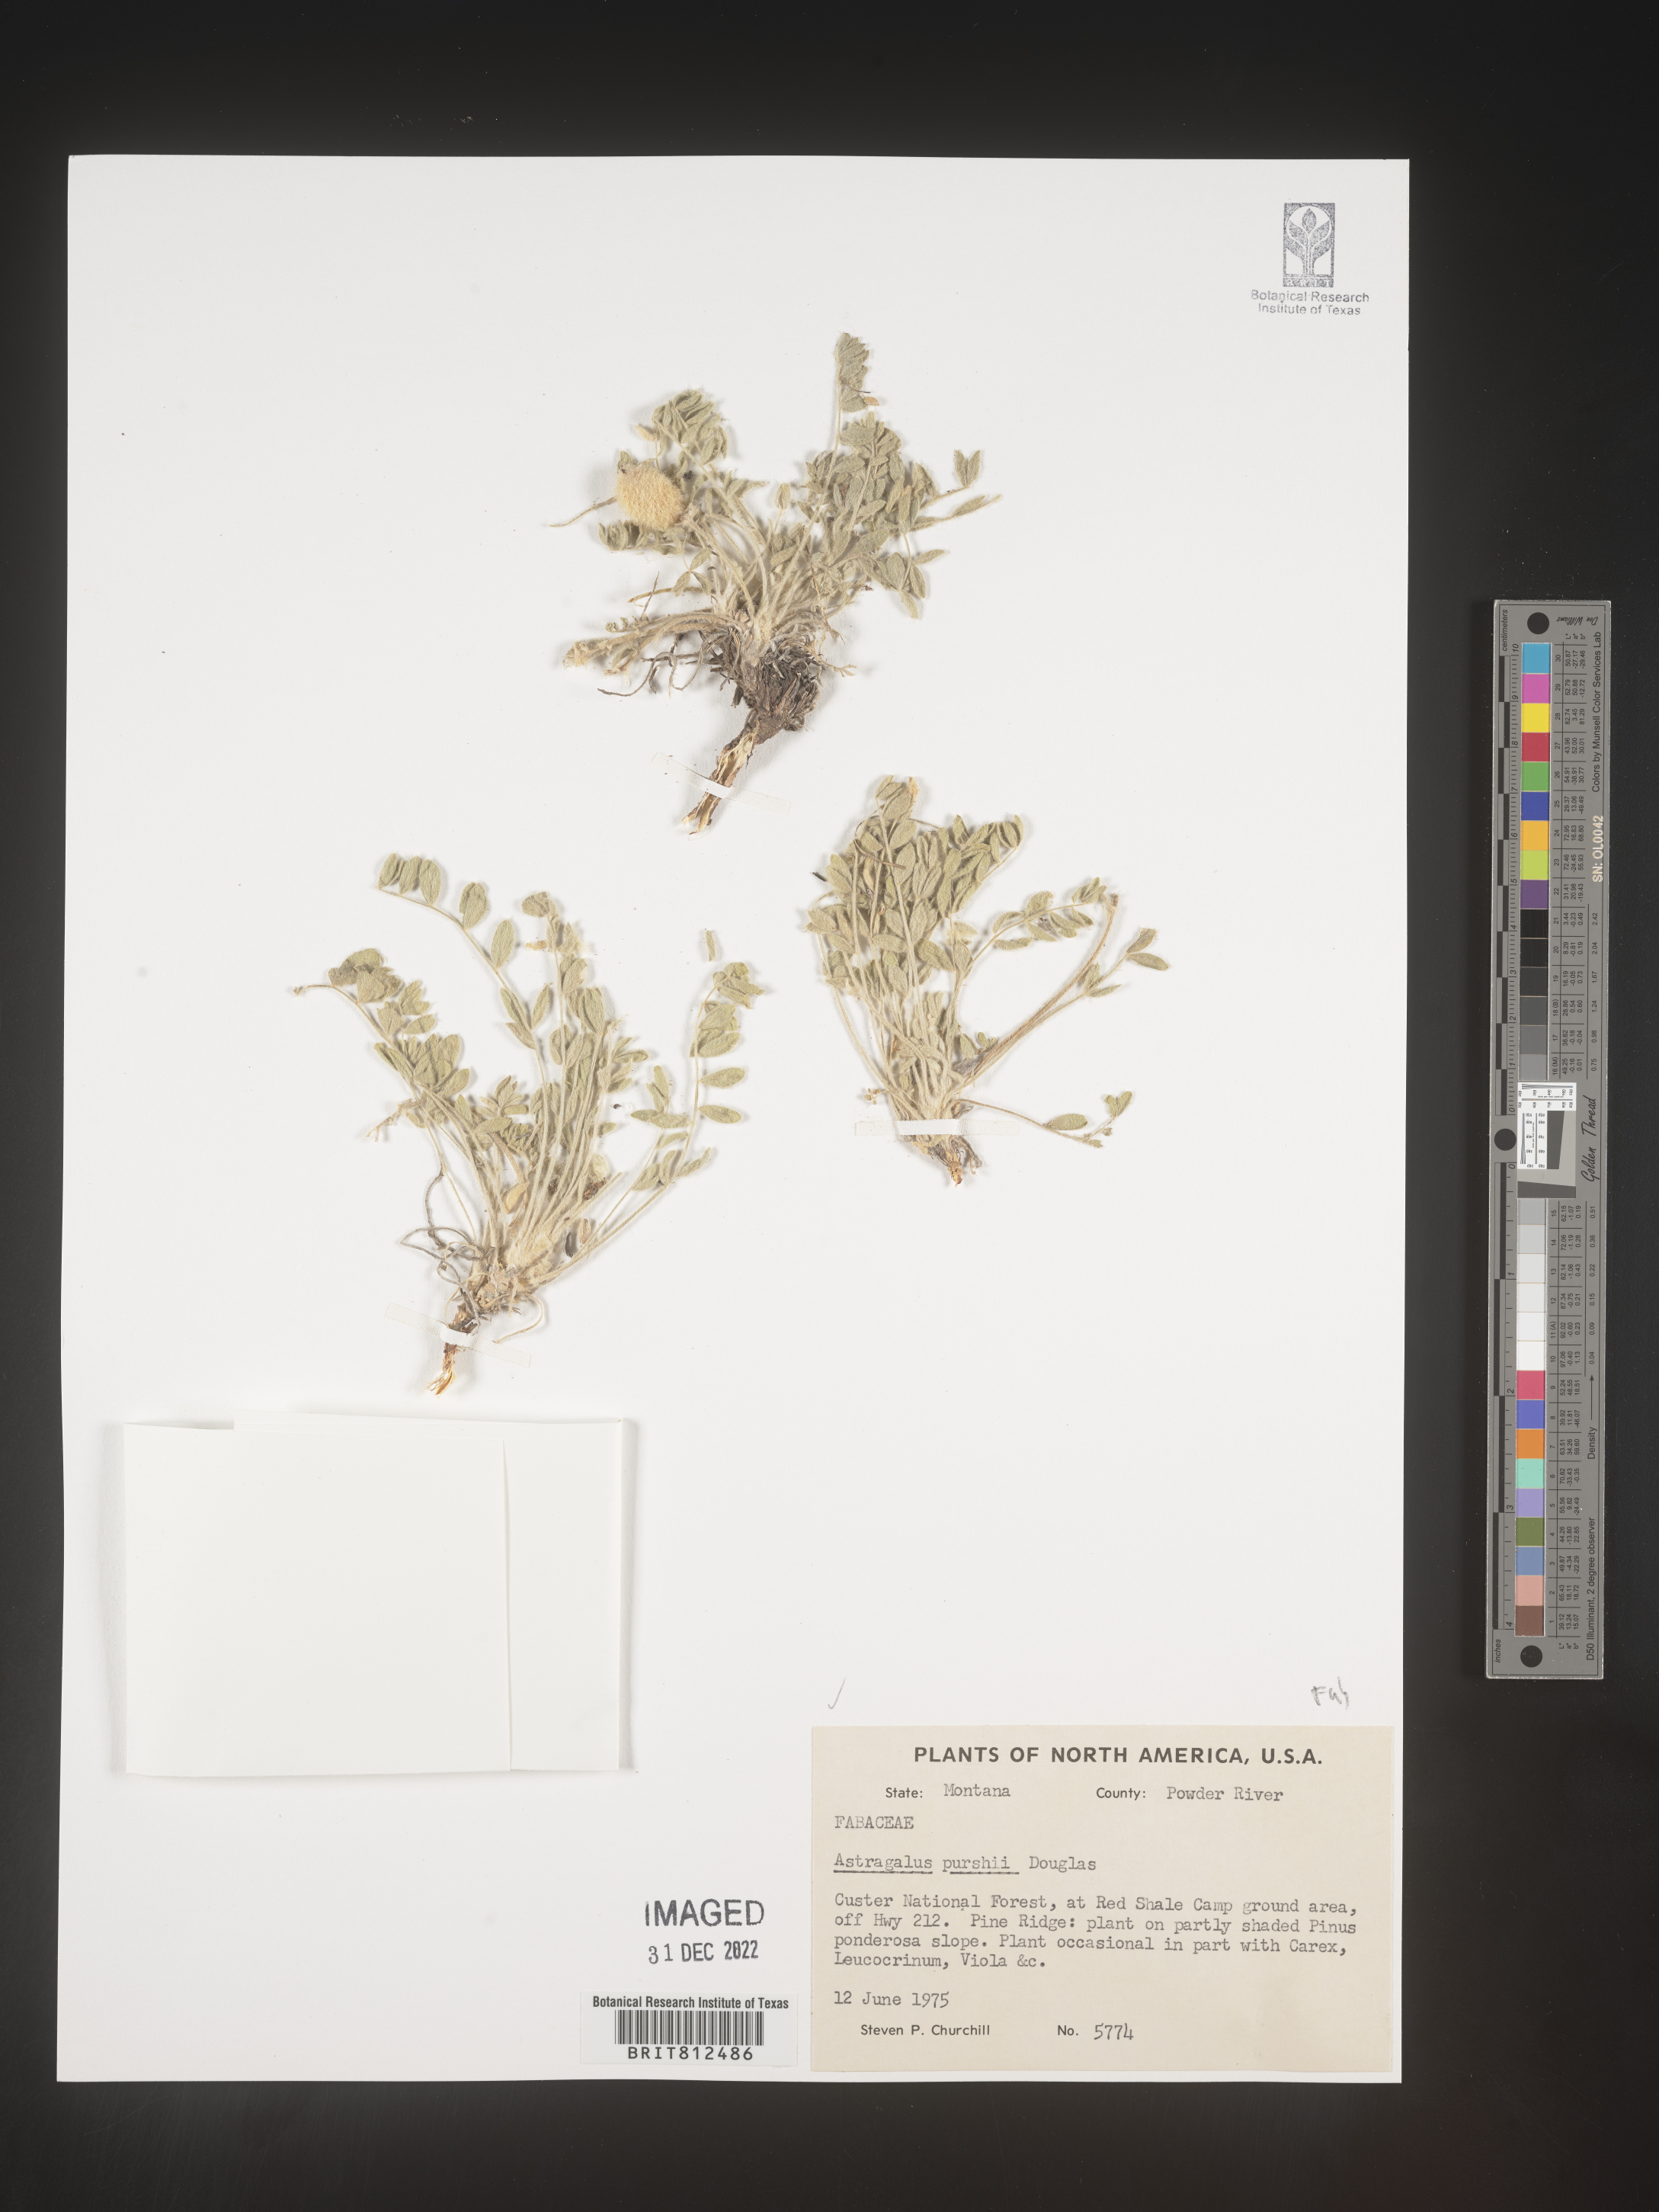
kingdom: Plantae
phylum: Tracheophyta
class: Magnoliopsida
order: Fabales
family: Fabaceae
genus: Astragalus
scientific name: Astragalus leucolobus
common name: Big bear valley woollypod
